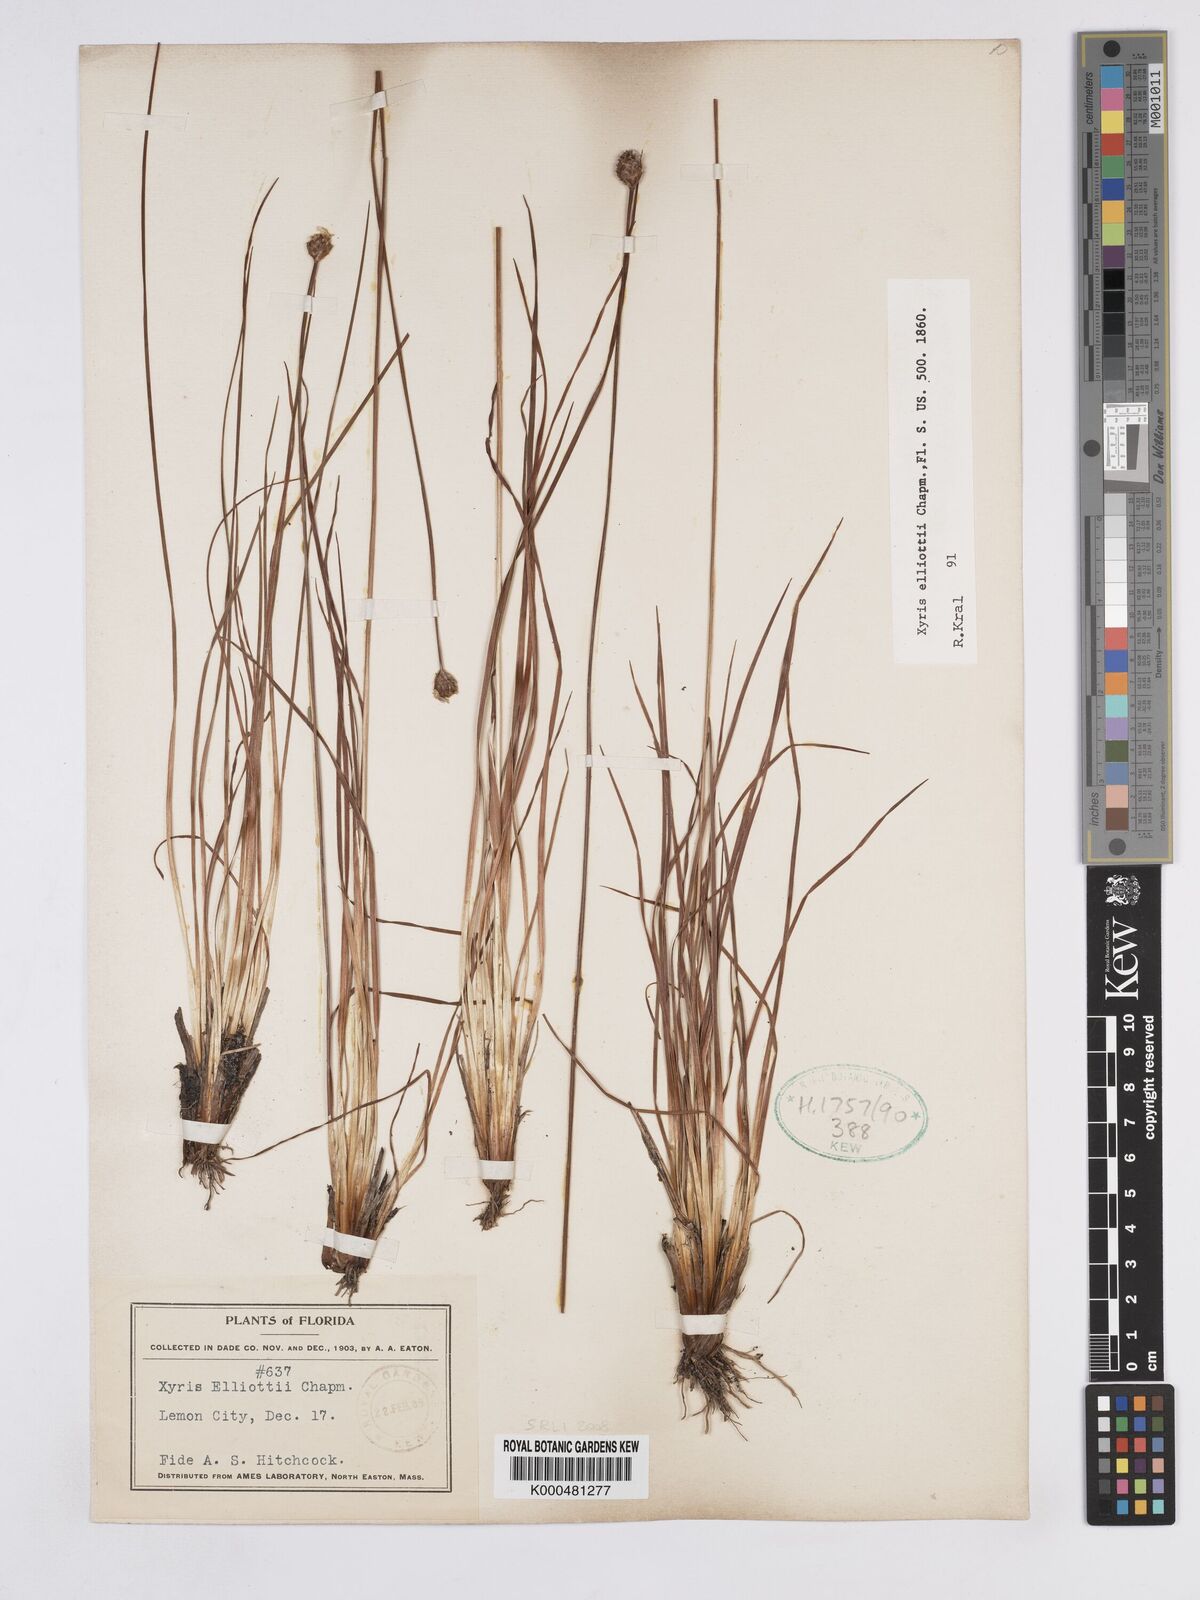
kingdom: Plantae
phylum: Tracheophyta
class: Liliopsida
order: Poales
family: Xyridaceae
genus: Xyris
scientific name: Xyris elliottii
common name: Elliot's yelloweyed grass
